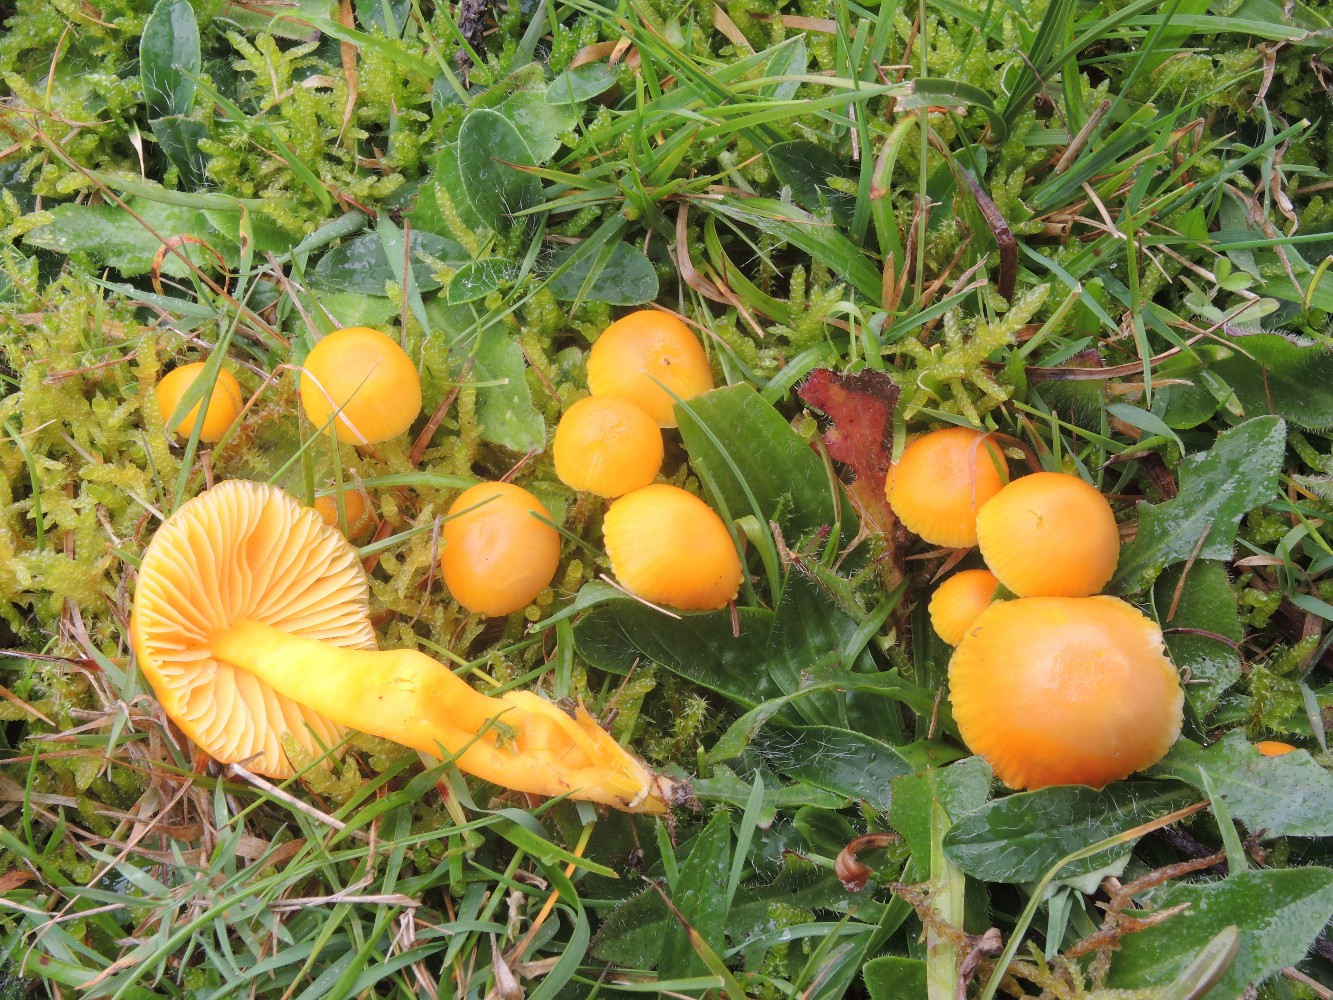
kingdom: Fungi
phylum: Basidiomycota
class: Agaricomycetes
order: Agaricales
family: Hygrophoraceae
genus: Hygrocybe
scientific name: Hygrocybe chlorophana
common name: gul vokshat
